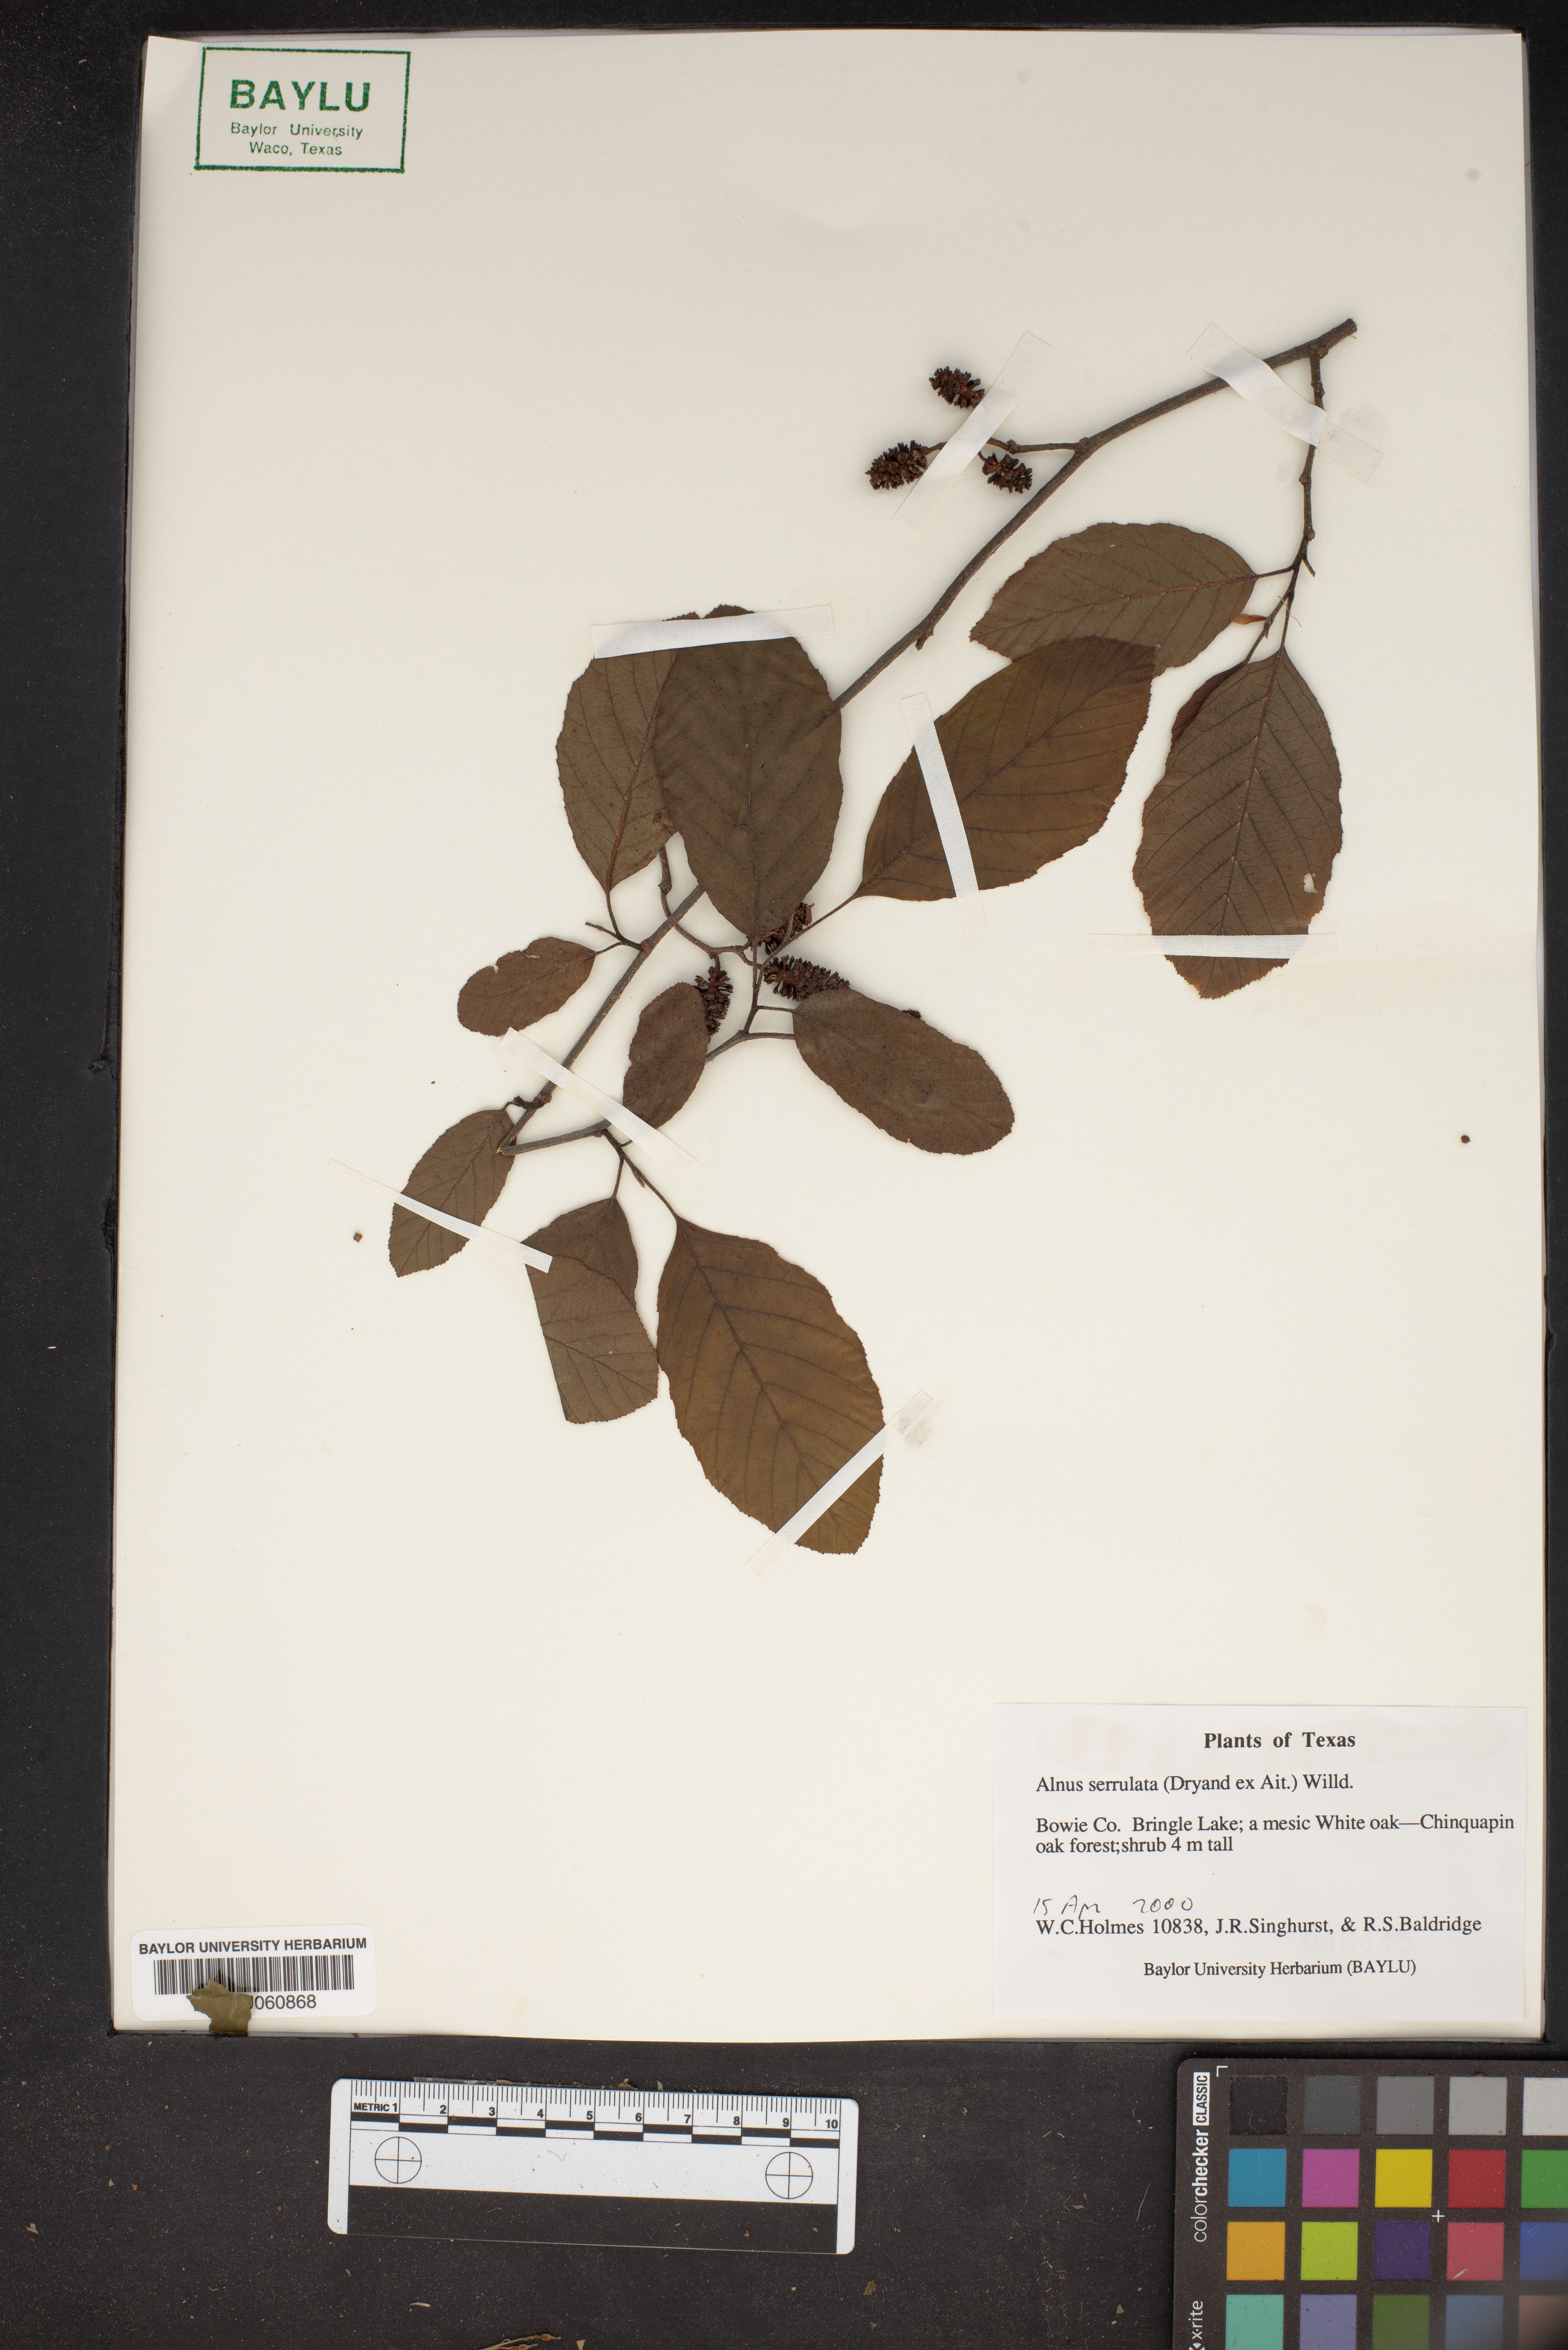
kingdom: Plantae
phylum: Tracheophyta
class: Magnoliopsida
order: Fagales
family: Betulaceae
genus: Alnus
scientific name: Alnus serrulata
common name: Hazel alder
